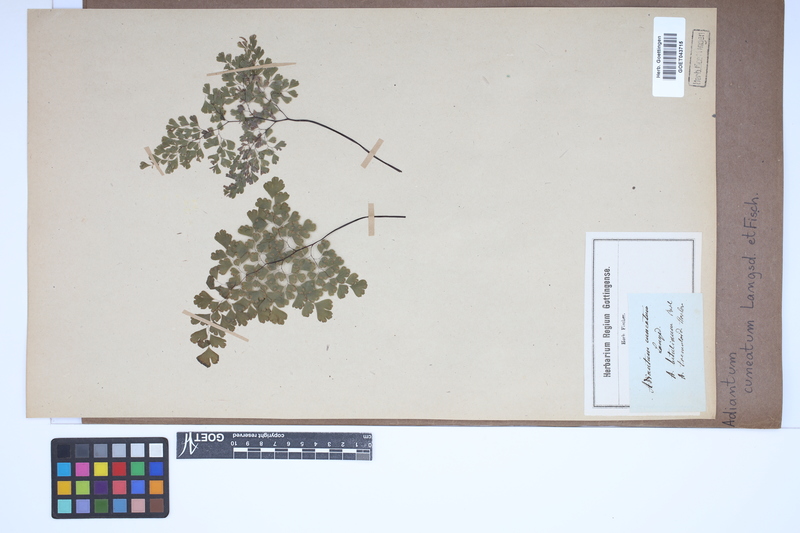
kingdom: Plantae
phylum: Tracheophyta
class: Polypodiopsida
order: Polypodiales
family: Pteridaceae
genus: Adiantum
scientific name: Adiantum raddianum
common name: Delta maidenhair fern
